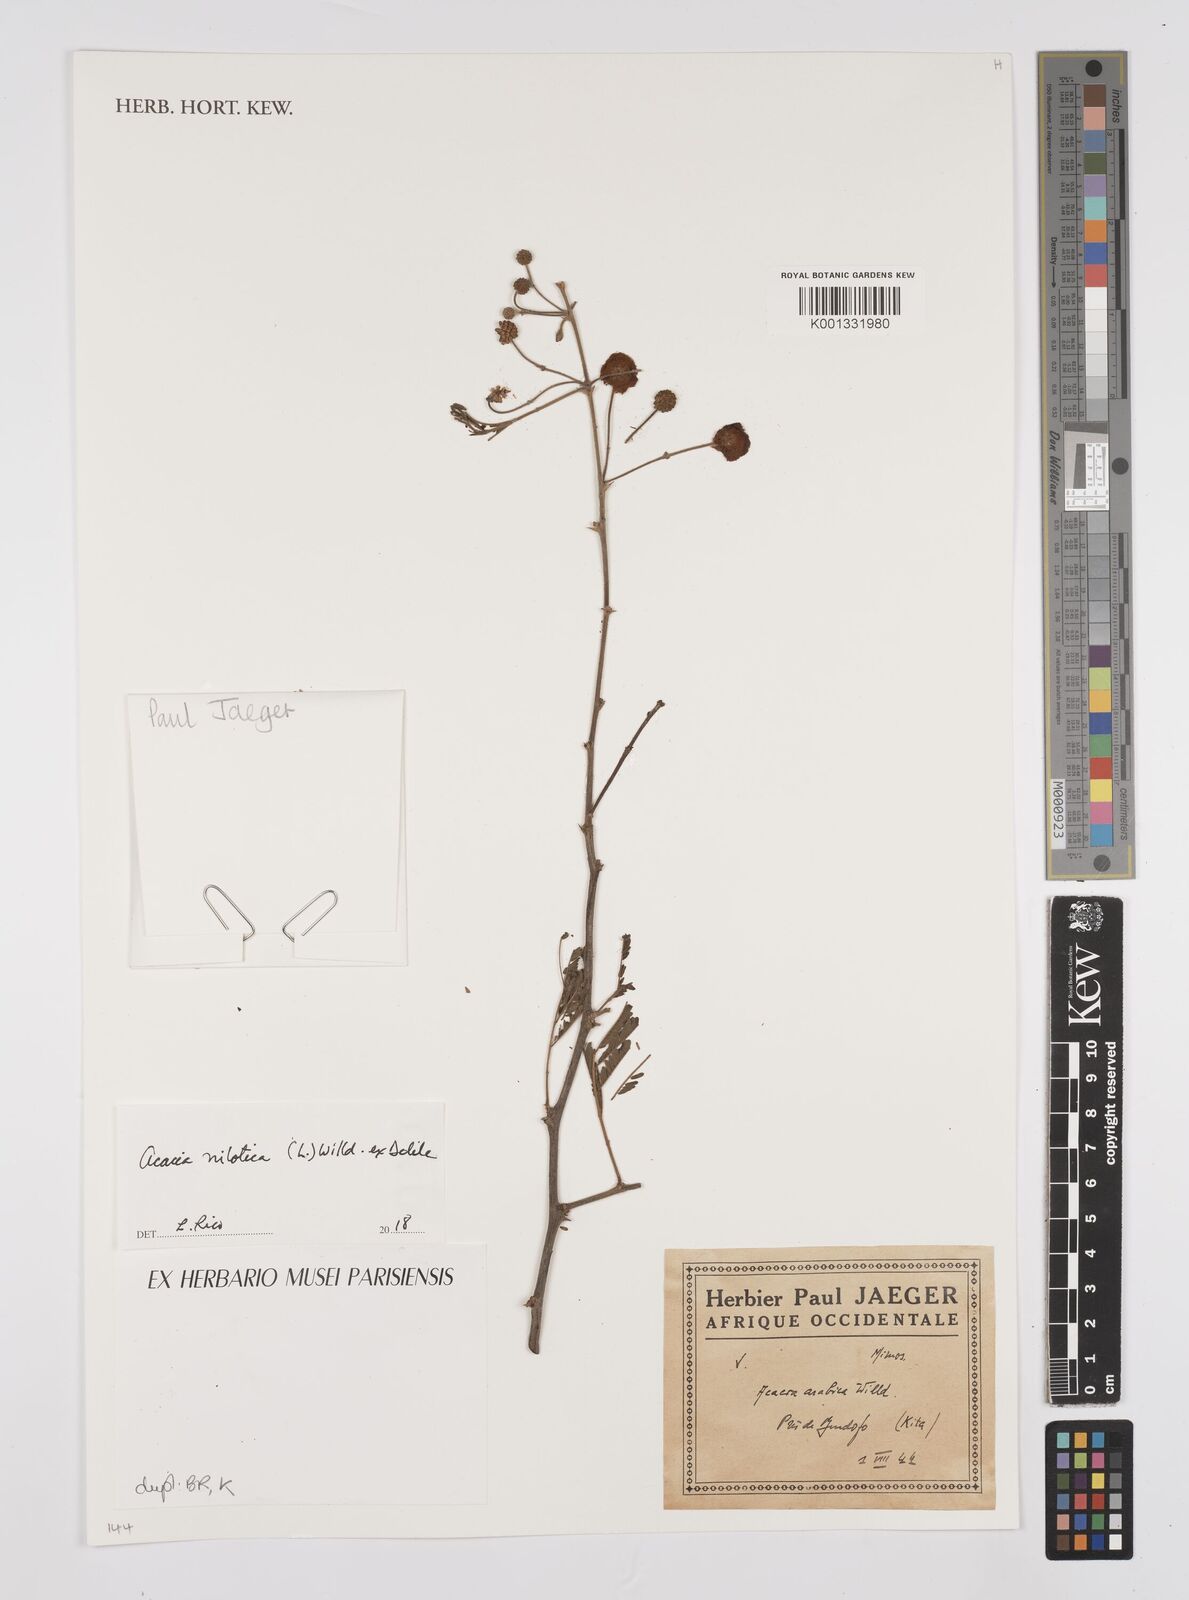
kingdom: Plantae
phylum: Tracheophyta
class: Magnoliopsida
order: Fabales
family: Fabaceae
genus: Acacia
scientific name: Acacia
